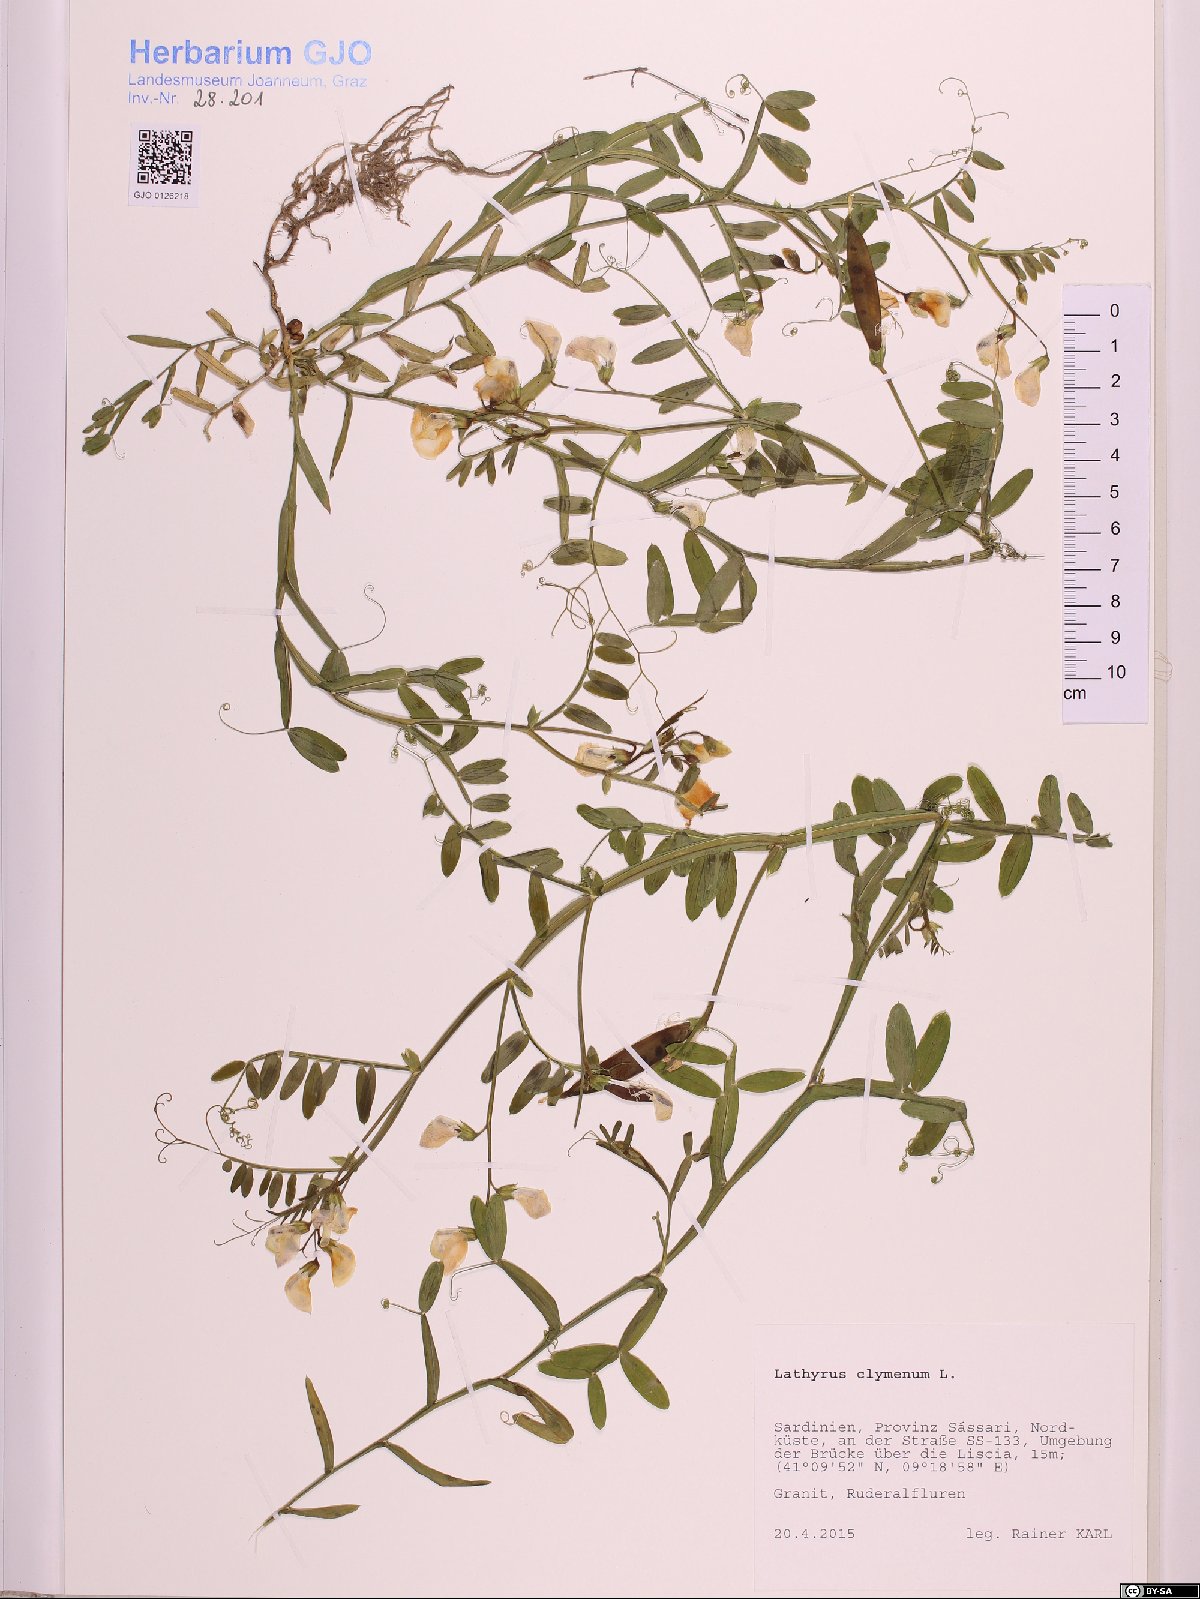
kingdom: Plantae
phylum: Tracheophyta
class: Magnoliopsida
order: Fabales
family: Fabaceae
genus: Lathyrus
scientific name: Lathyrus clymenum
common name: Spanish vetchling
